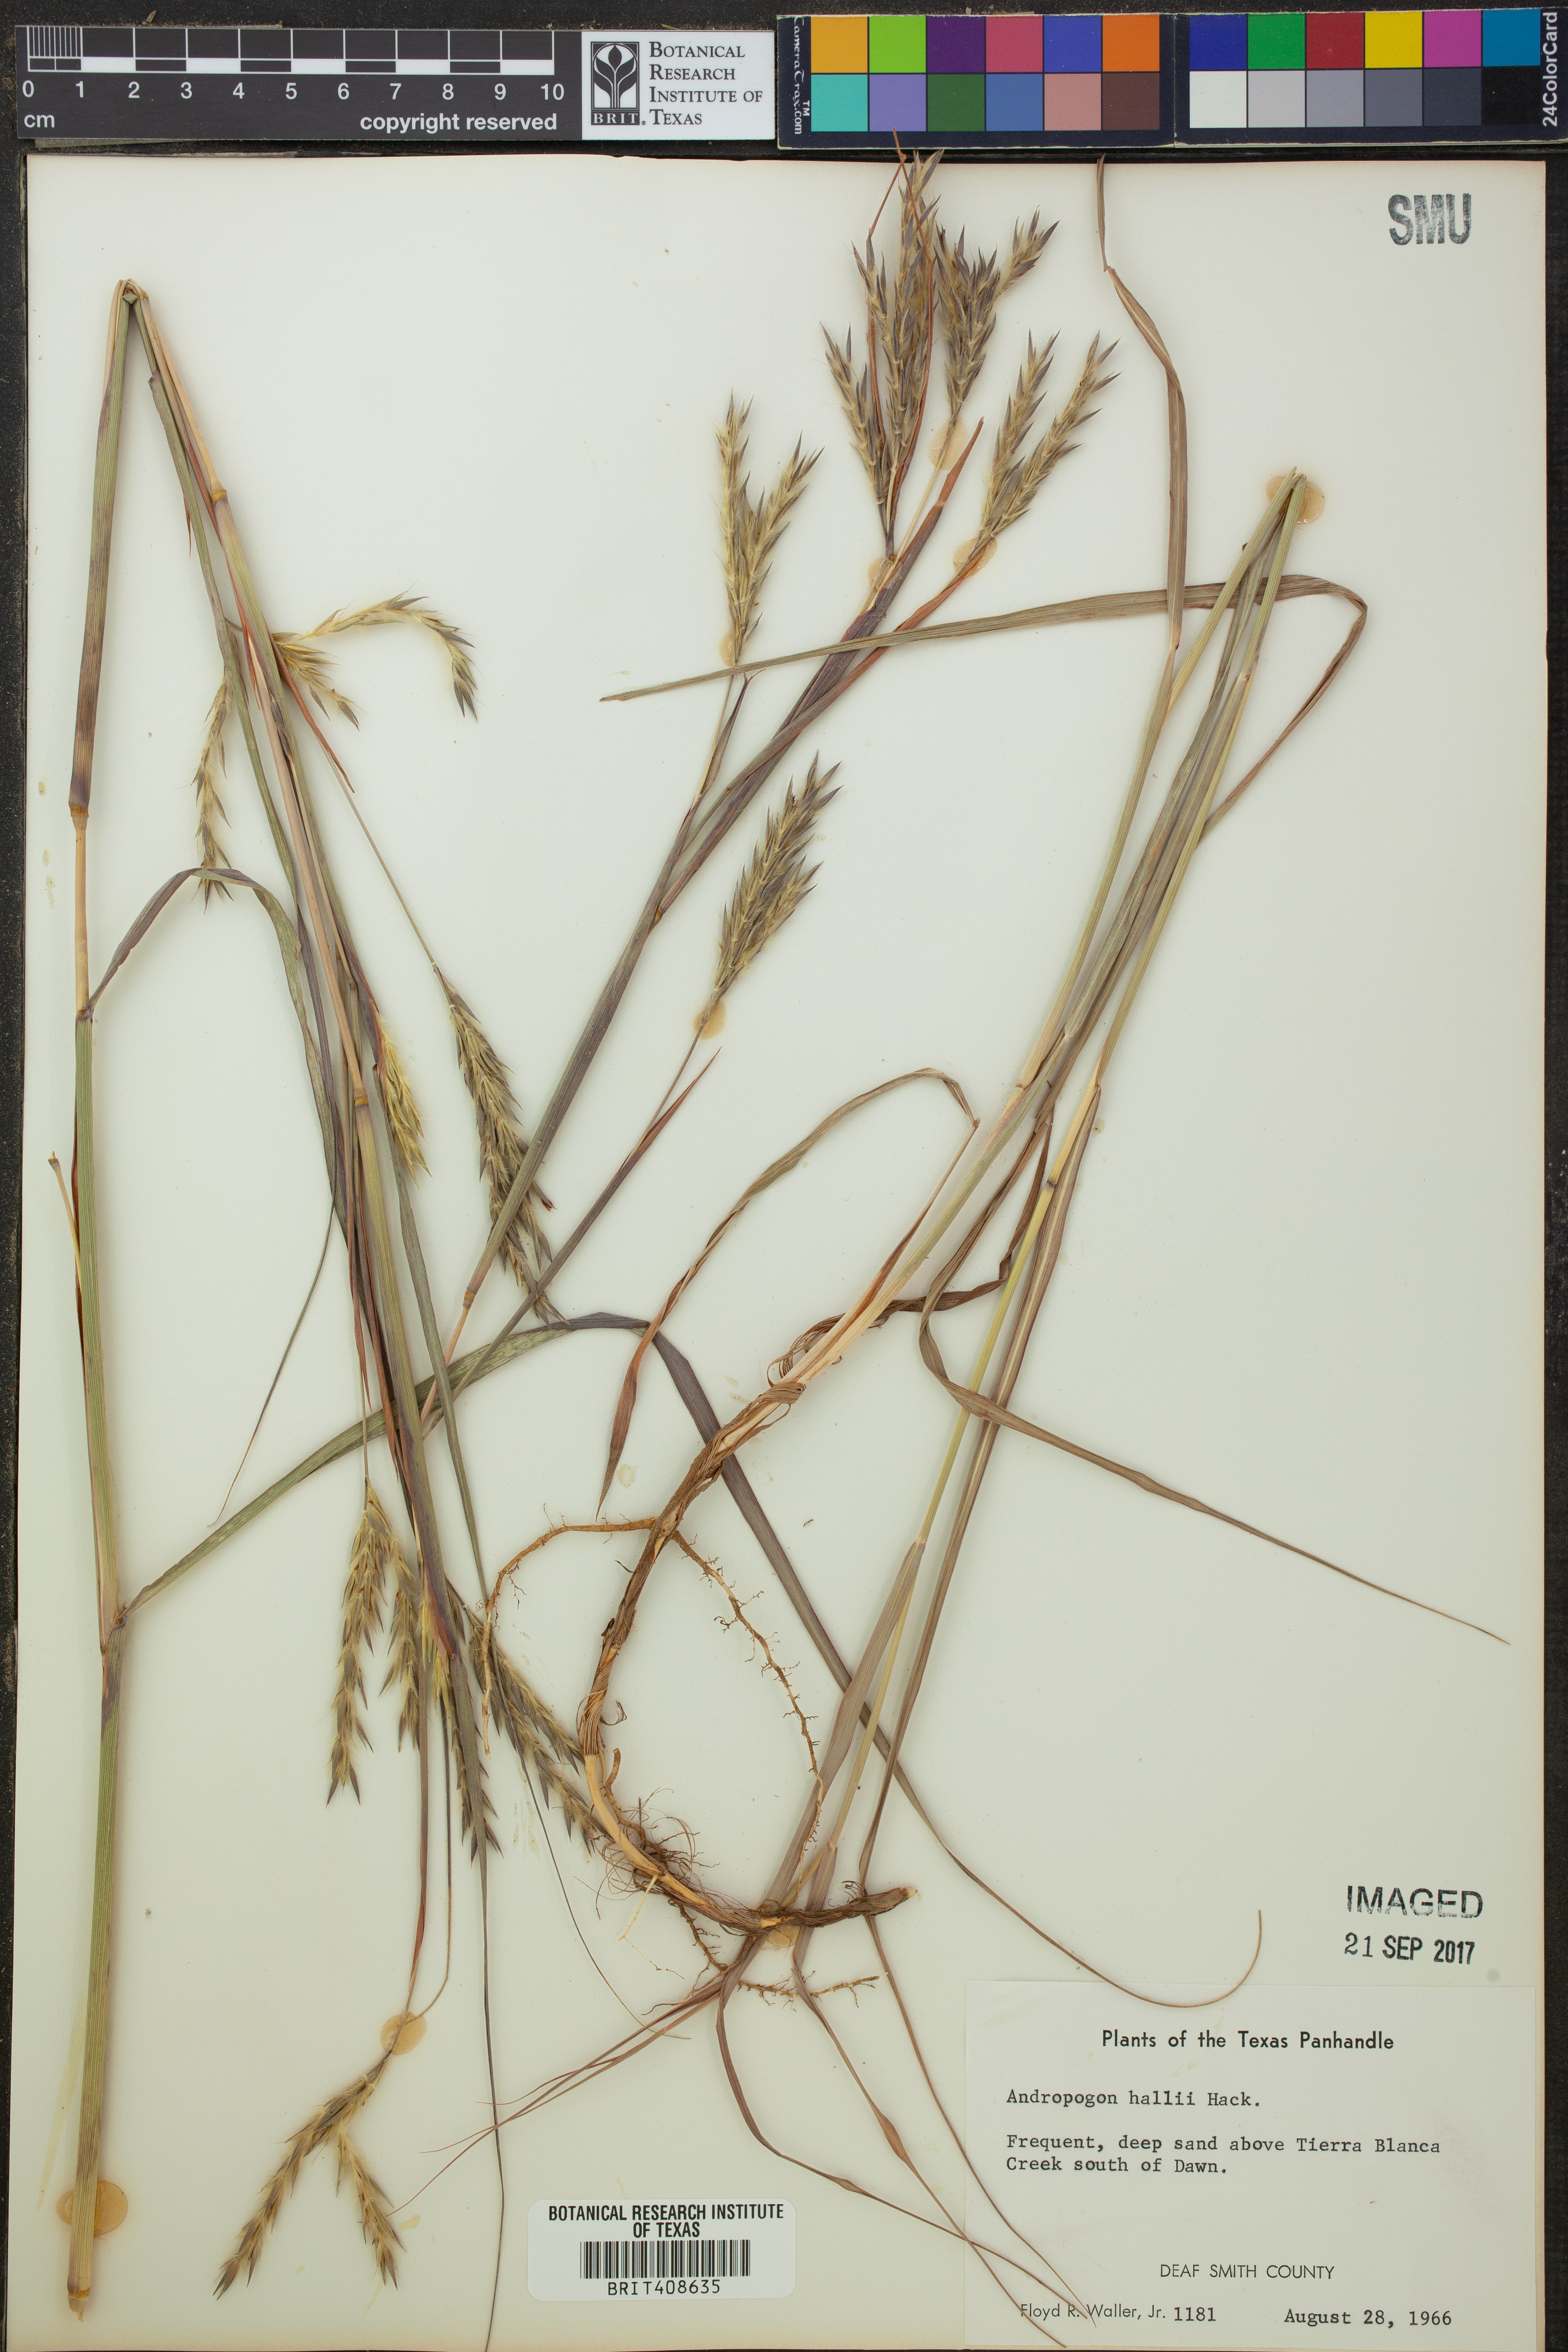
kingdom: Plantae
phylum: Tracheophyta
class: Liliopsida
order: Poales
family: Poaceae
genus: Andropogon
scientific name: Andropogon hallii
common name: Sand bluestem
